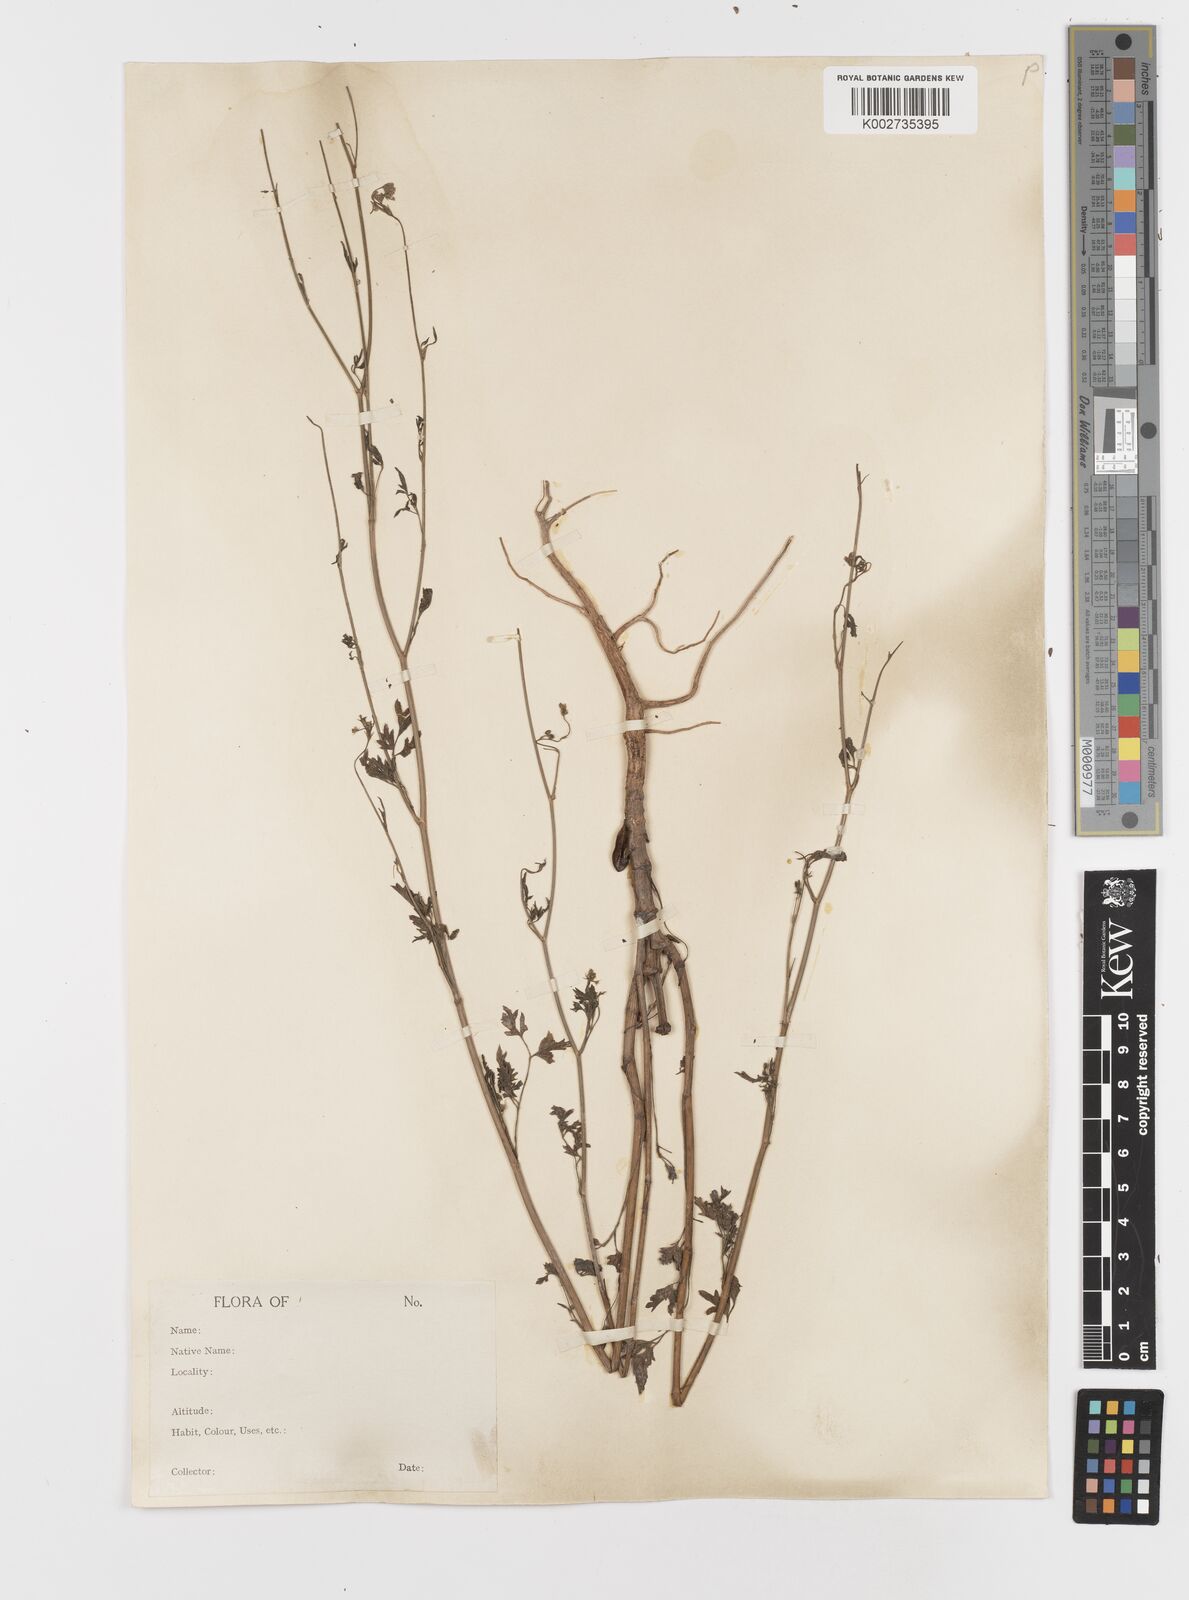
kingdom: Plantae
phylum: Tracheophyta
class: Magnoliopsida
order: Apiales
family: Apiaceae
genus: Psammogeton
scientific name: Psammogeton involucratum
